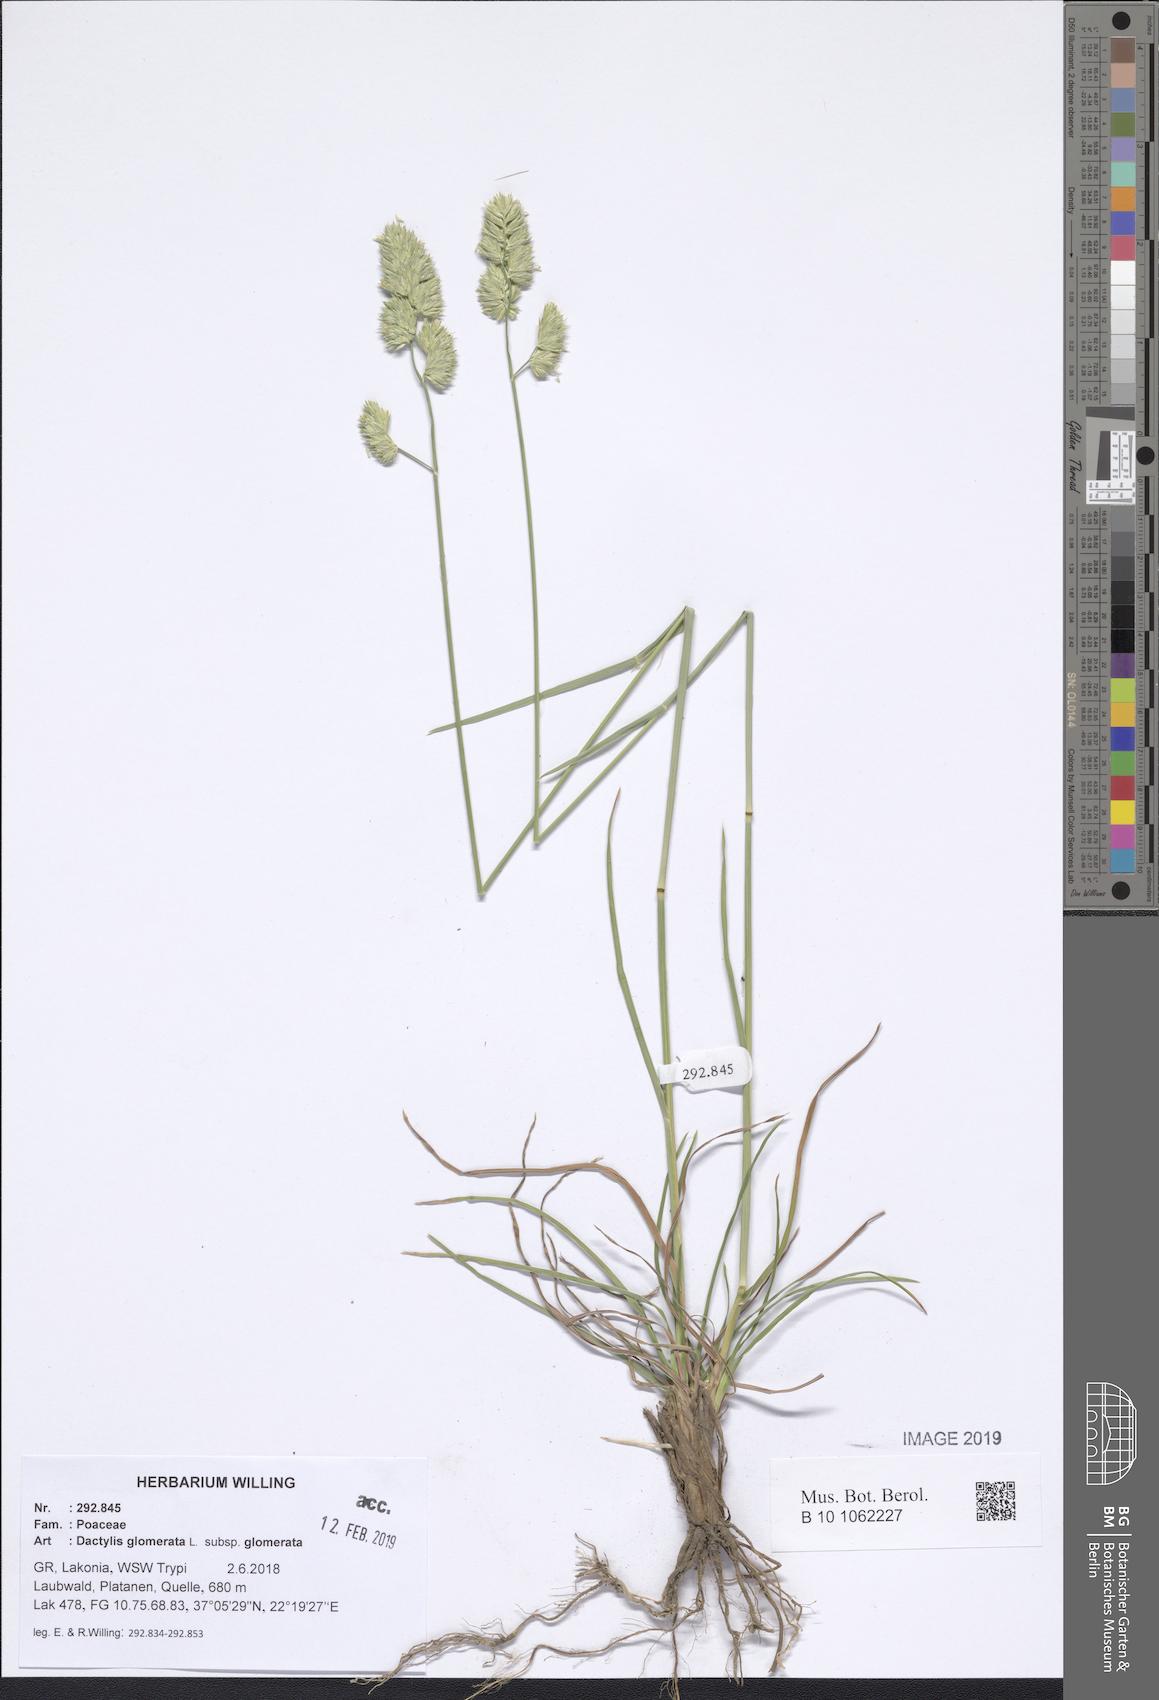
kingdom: Plantae
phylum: Tracheophyta
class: Liliopsida
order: Poales
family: Poaceae
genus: Dactylis
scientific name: Dactylis glomerata
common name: Orchardgrass
